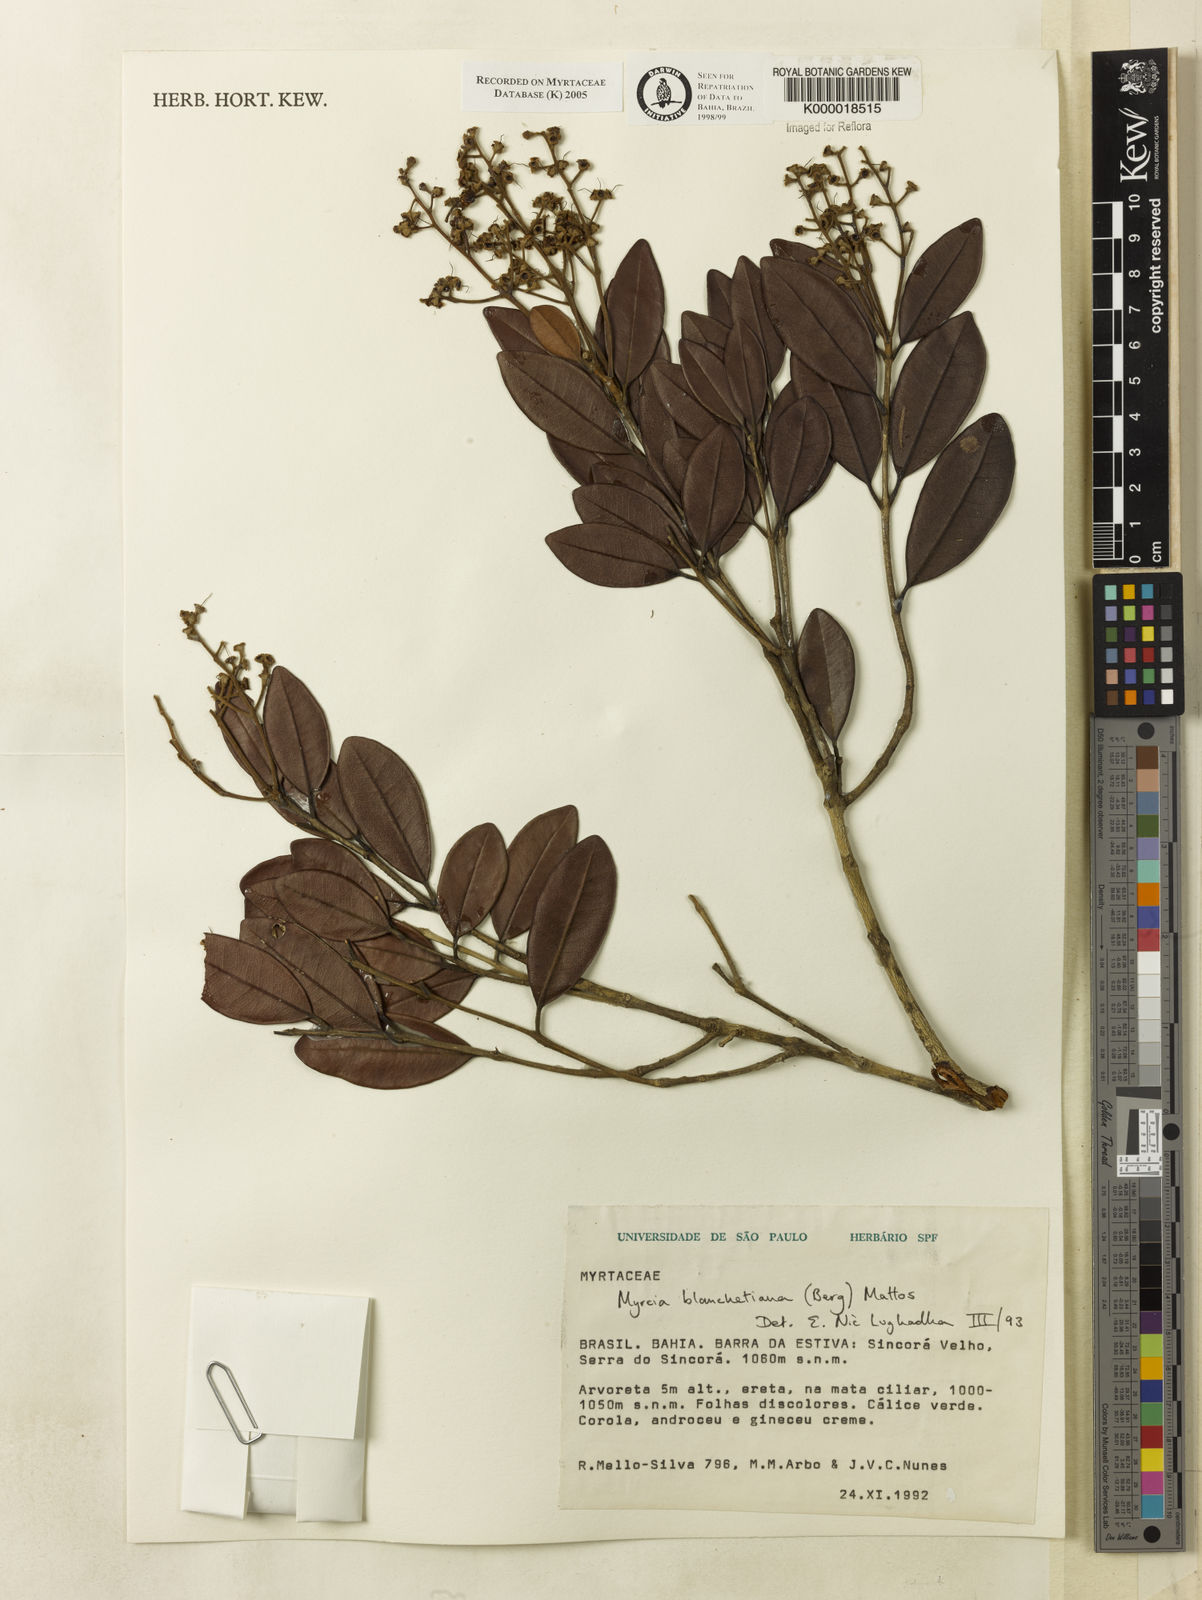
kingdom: Plantae
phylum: Tracheophyta
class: Magnoliopsida
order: Myrtales
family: Myrtaceae
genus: Myrcia
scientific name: Myrcia blanchetiana
